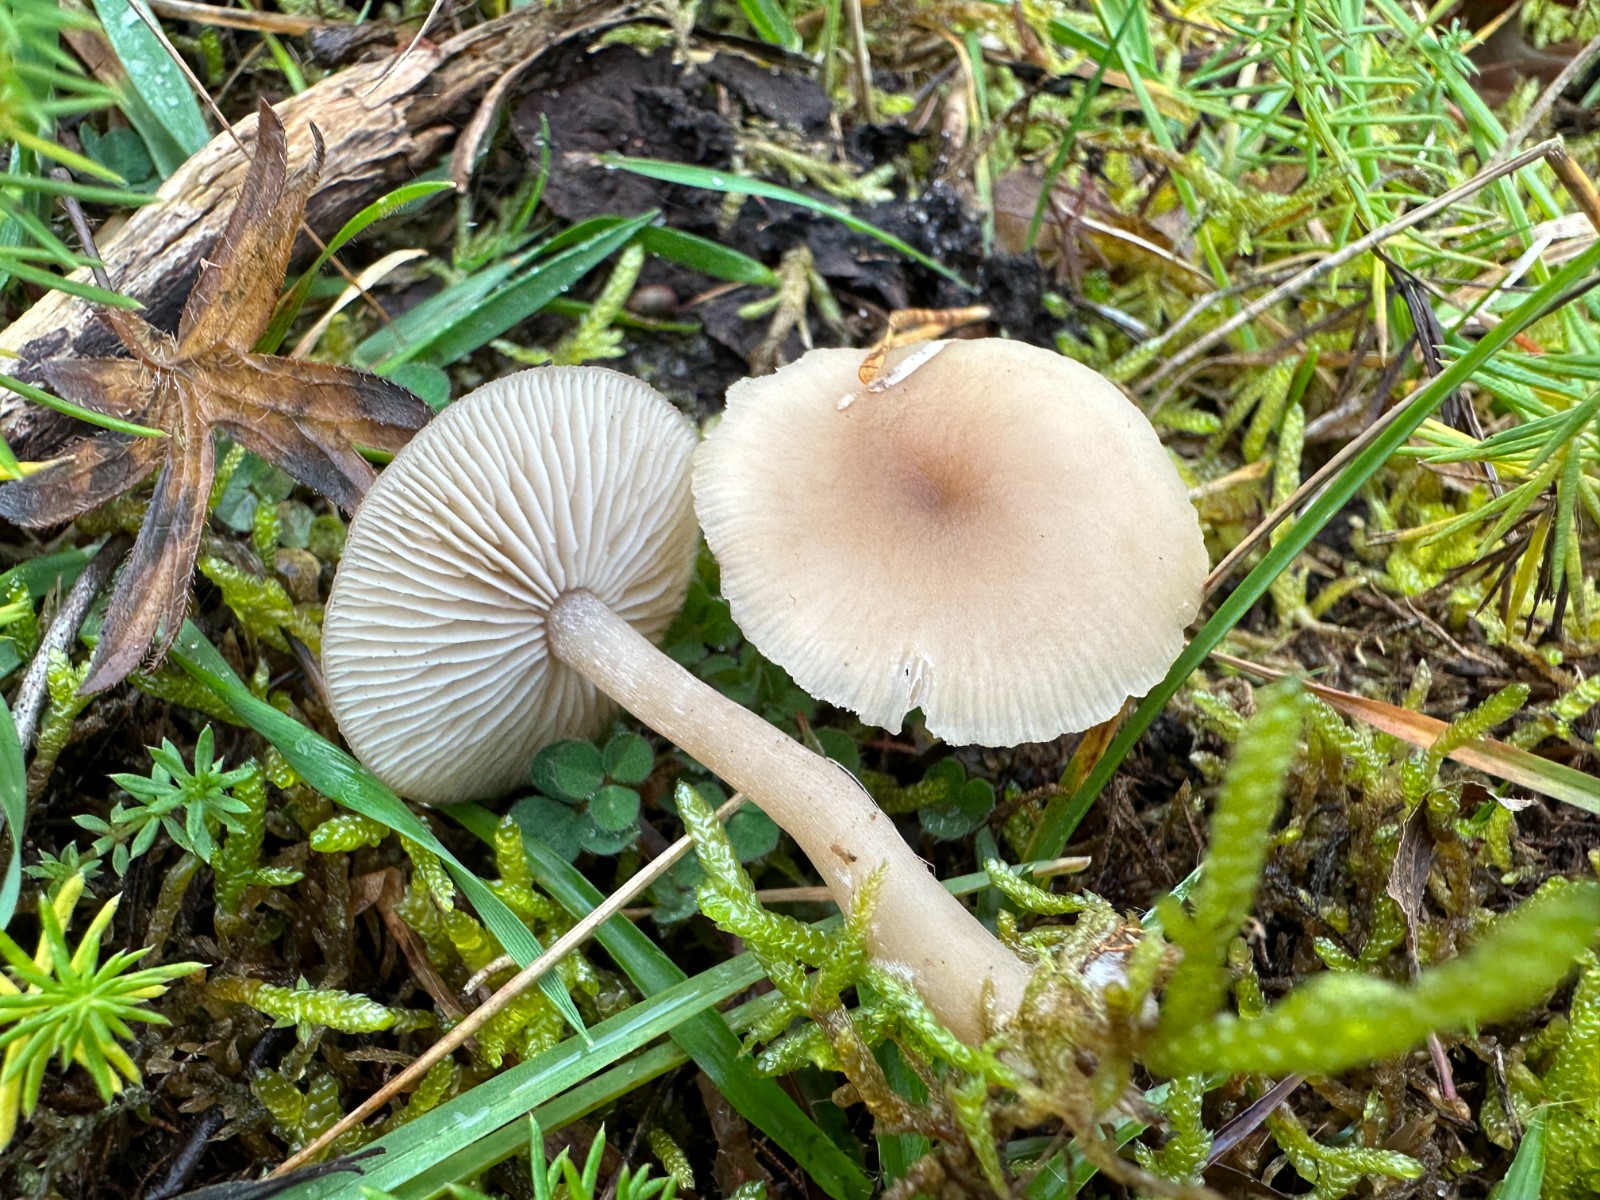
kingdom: Fungi
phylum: Basidiomycota
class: Agaricomycetes
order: Agaricales
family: Tricholomataceae
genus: Clitocybe
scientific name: Clitocybe fragrans
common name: vellugtende tragthat
